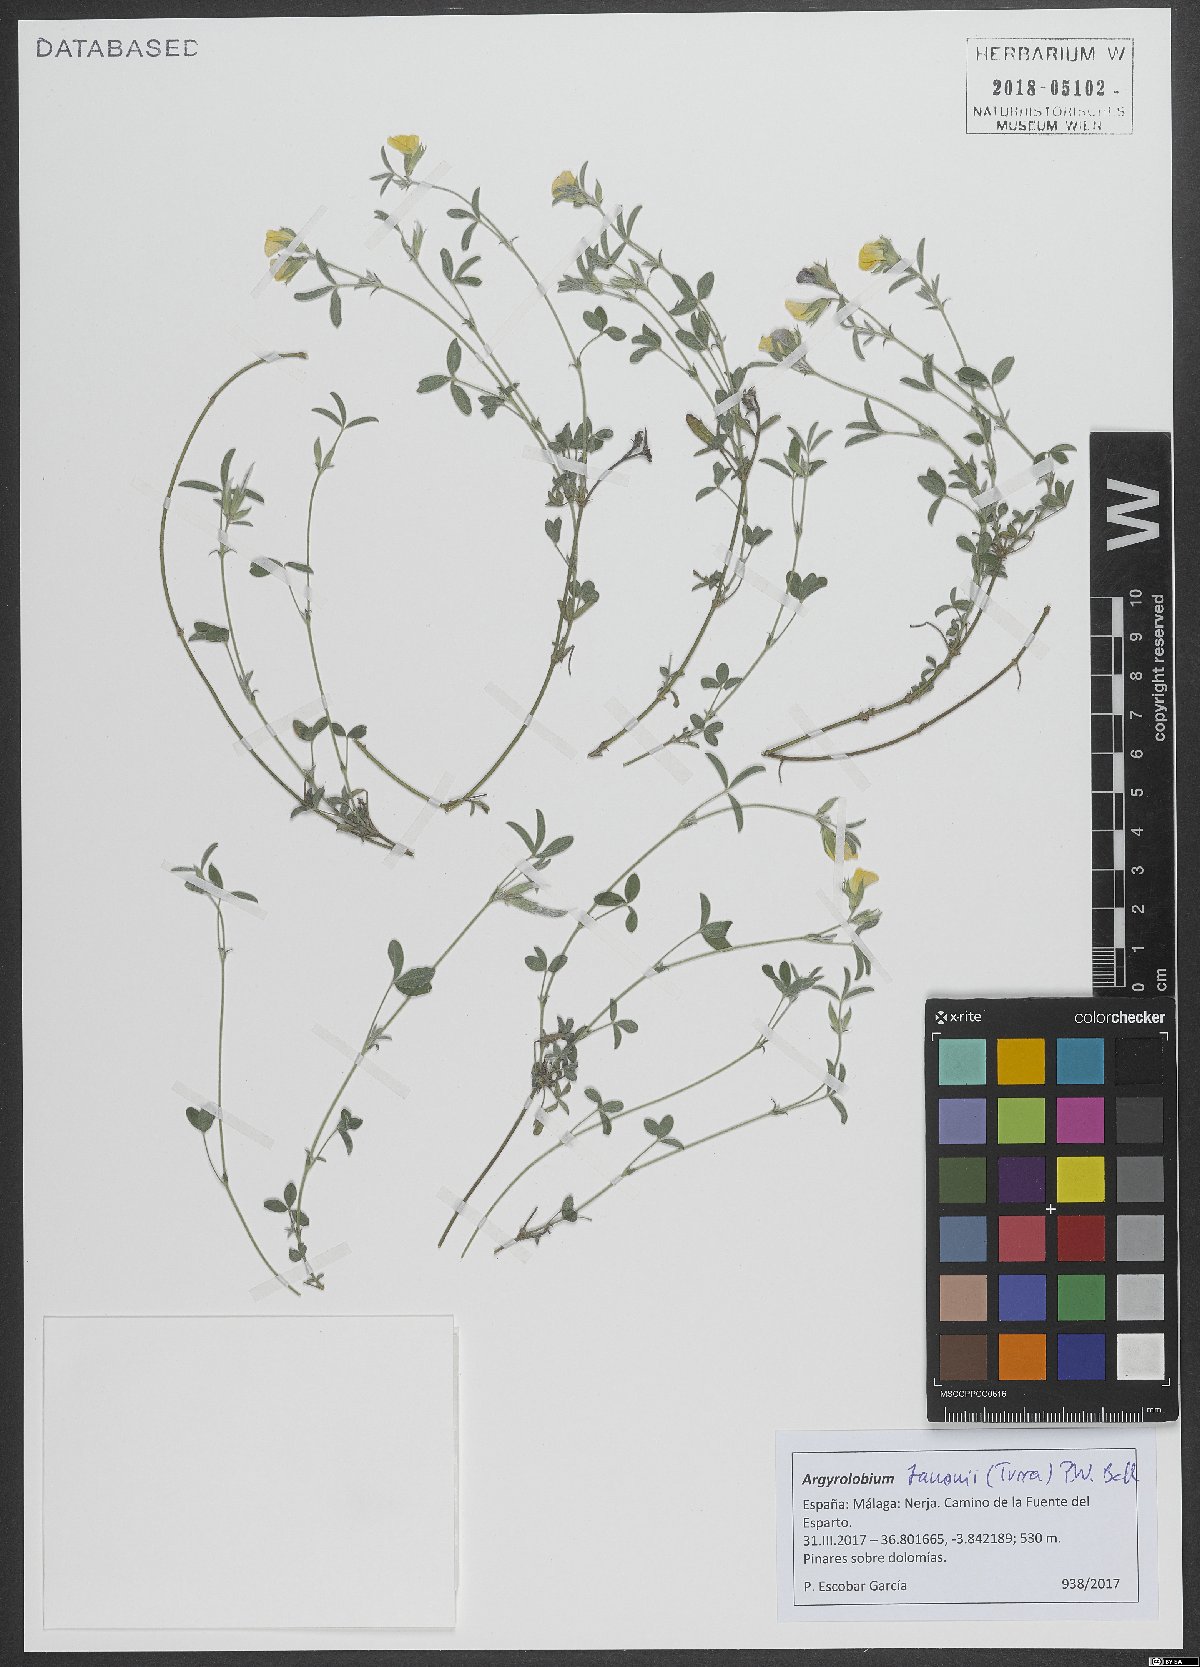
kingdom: Plantae
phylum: Tracheophyta
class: Magnoliopsida
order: Fabales
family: Fabaceae
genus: Argyrolobium
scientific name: Argyrolobium zanonii
